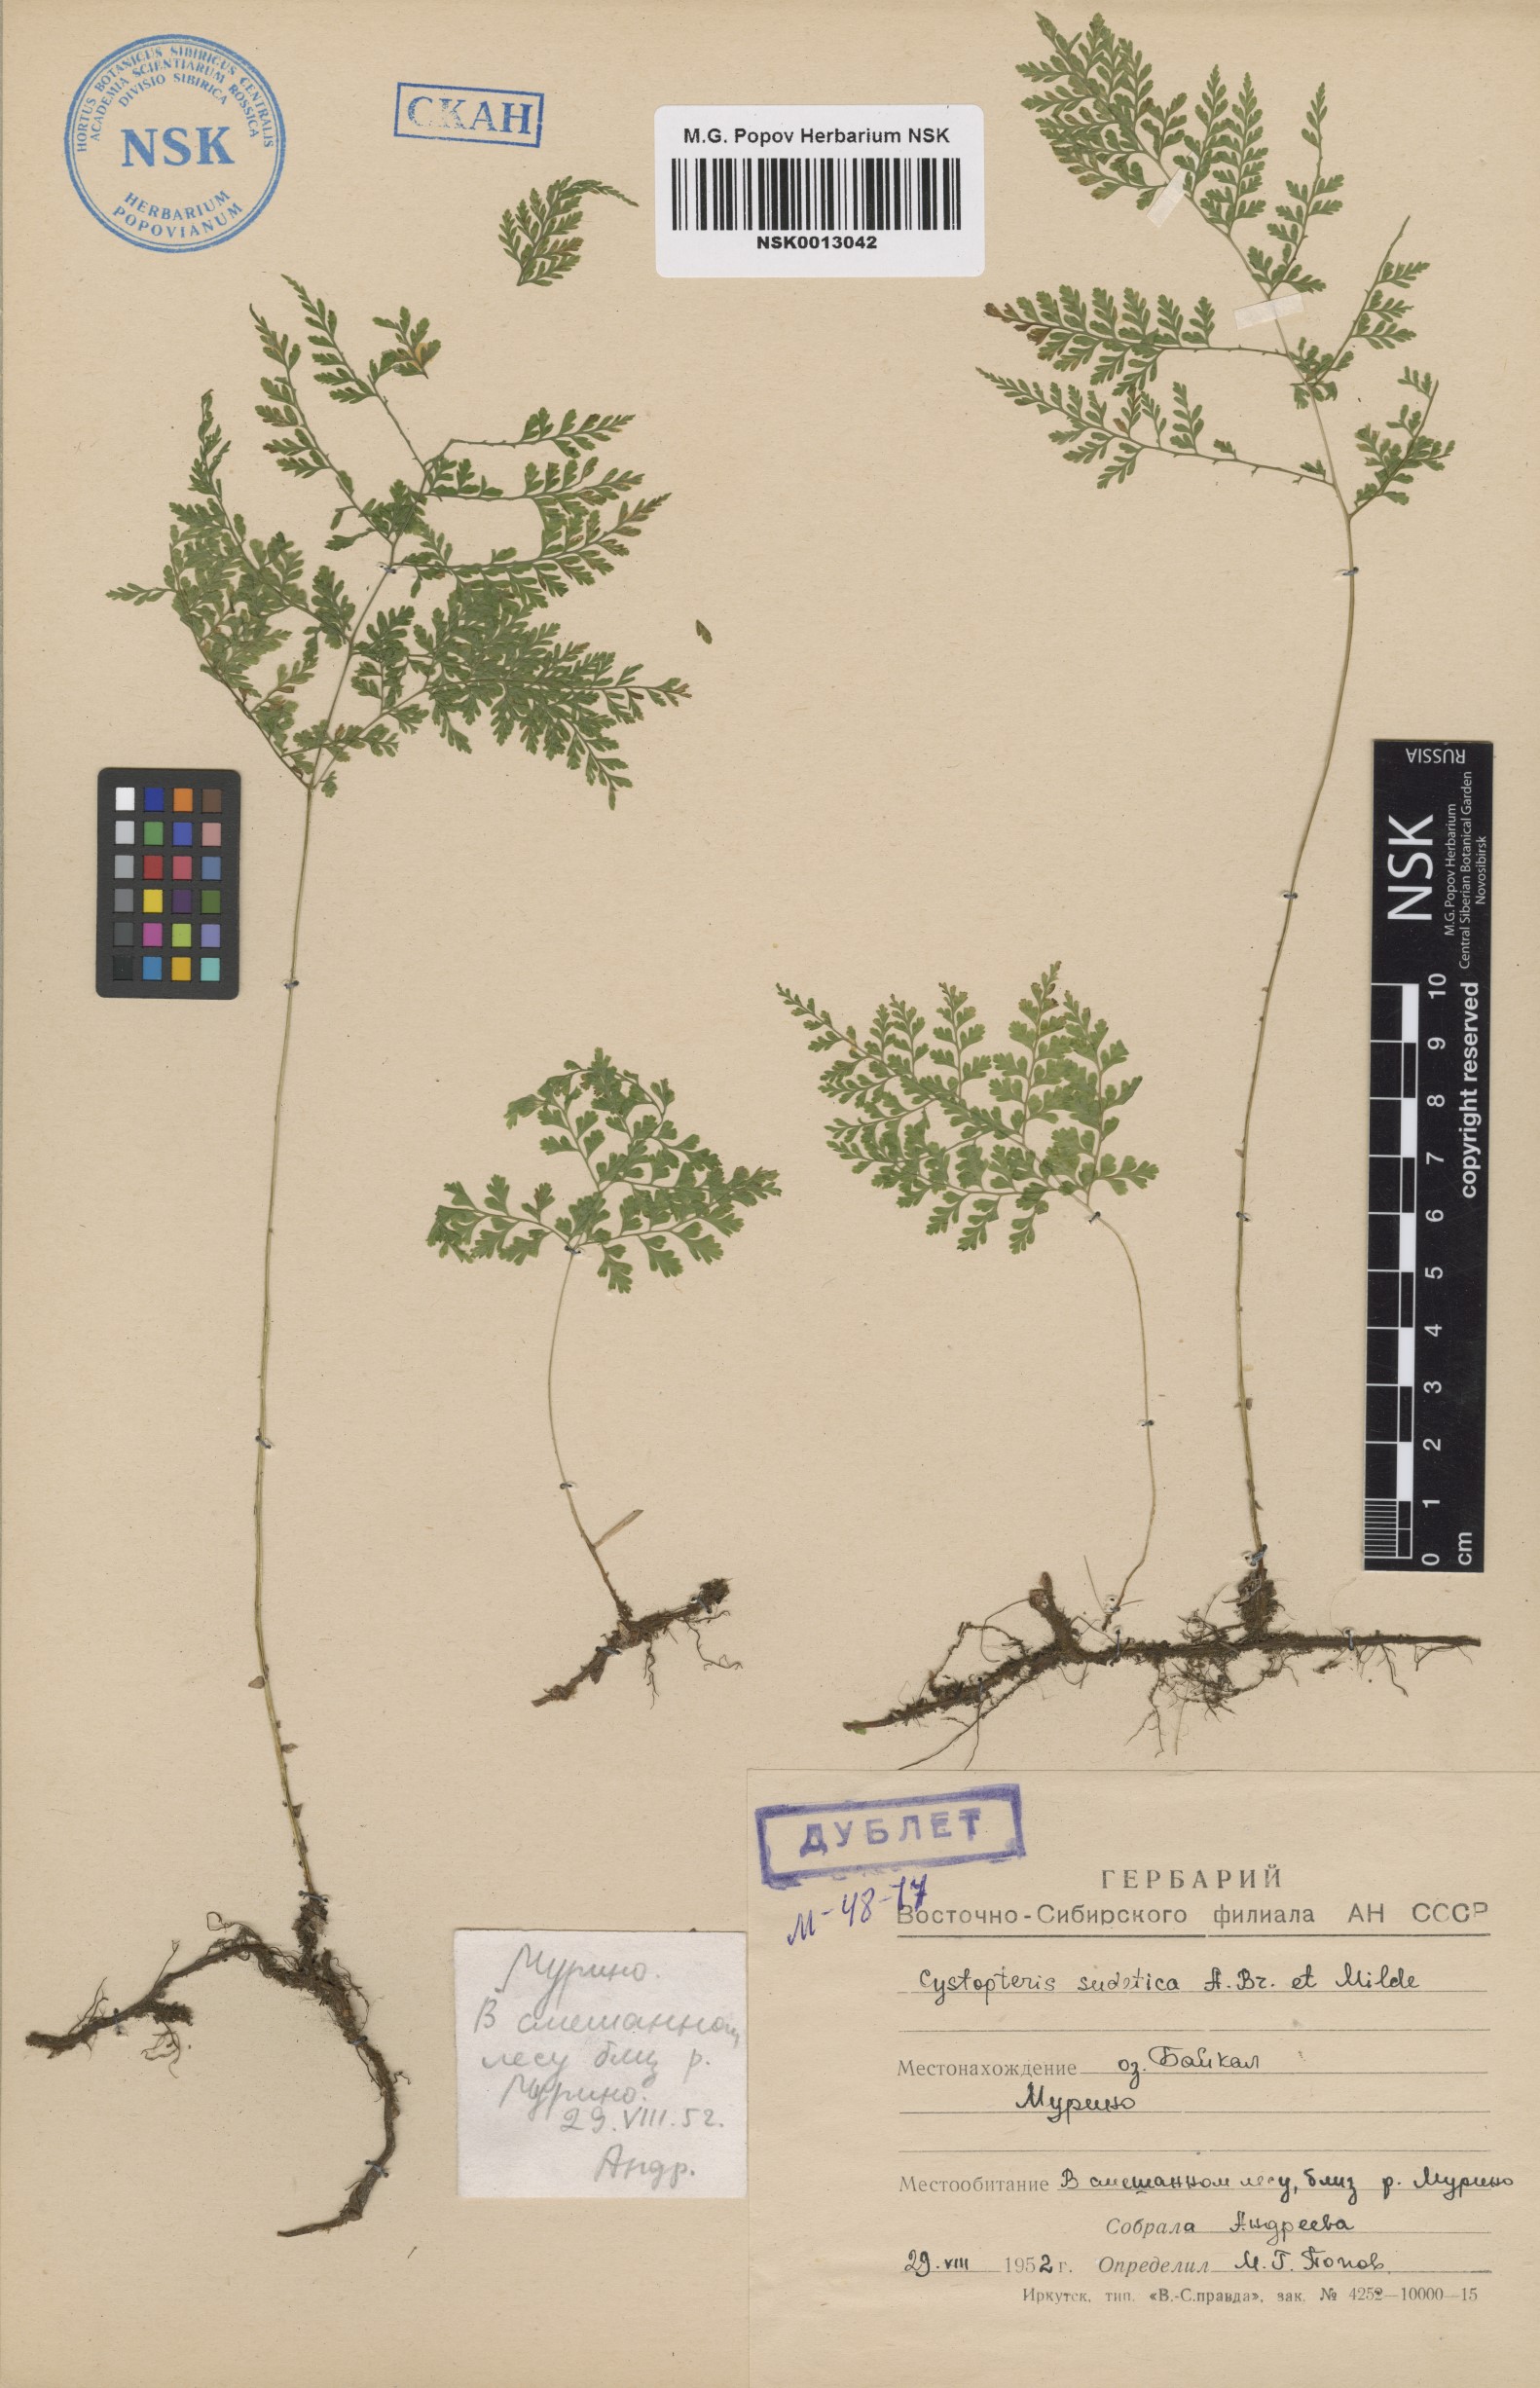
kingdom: Plantae
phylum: Tracheophyta
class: Polypodiopsida
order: Polypodiales
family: Cystopteridaceae
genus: Cystopteris
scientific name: Cystopteris sudetica
